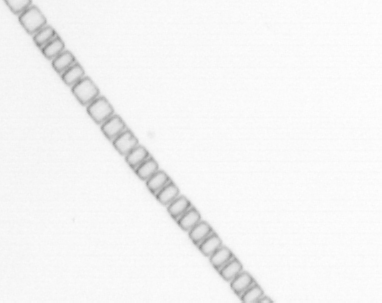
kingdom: Chromista
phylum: Ochrophyta
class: Bacillariophyceae
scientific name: Bacillariophyceae
